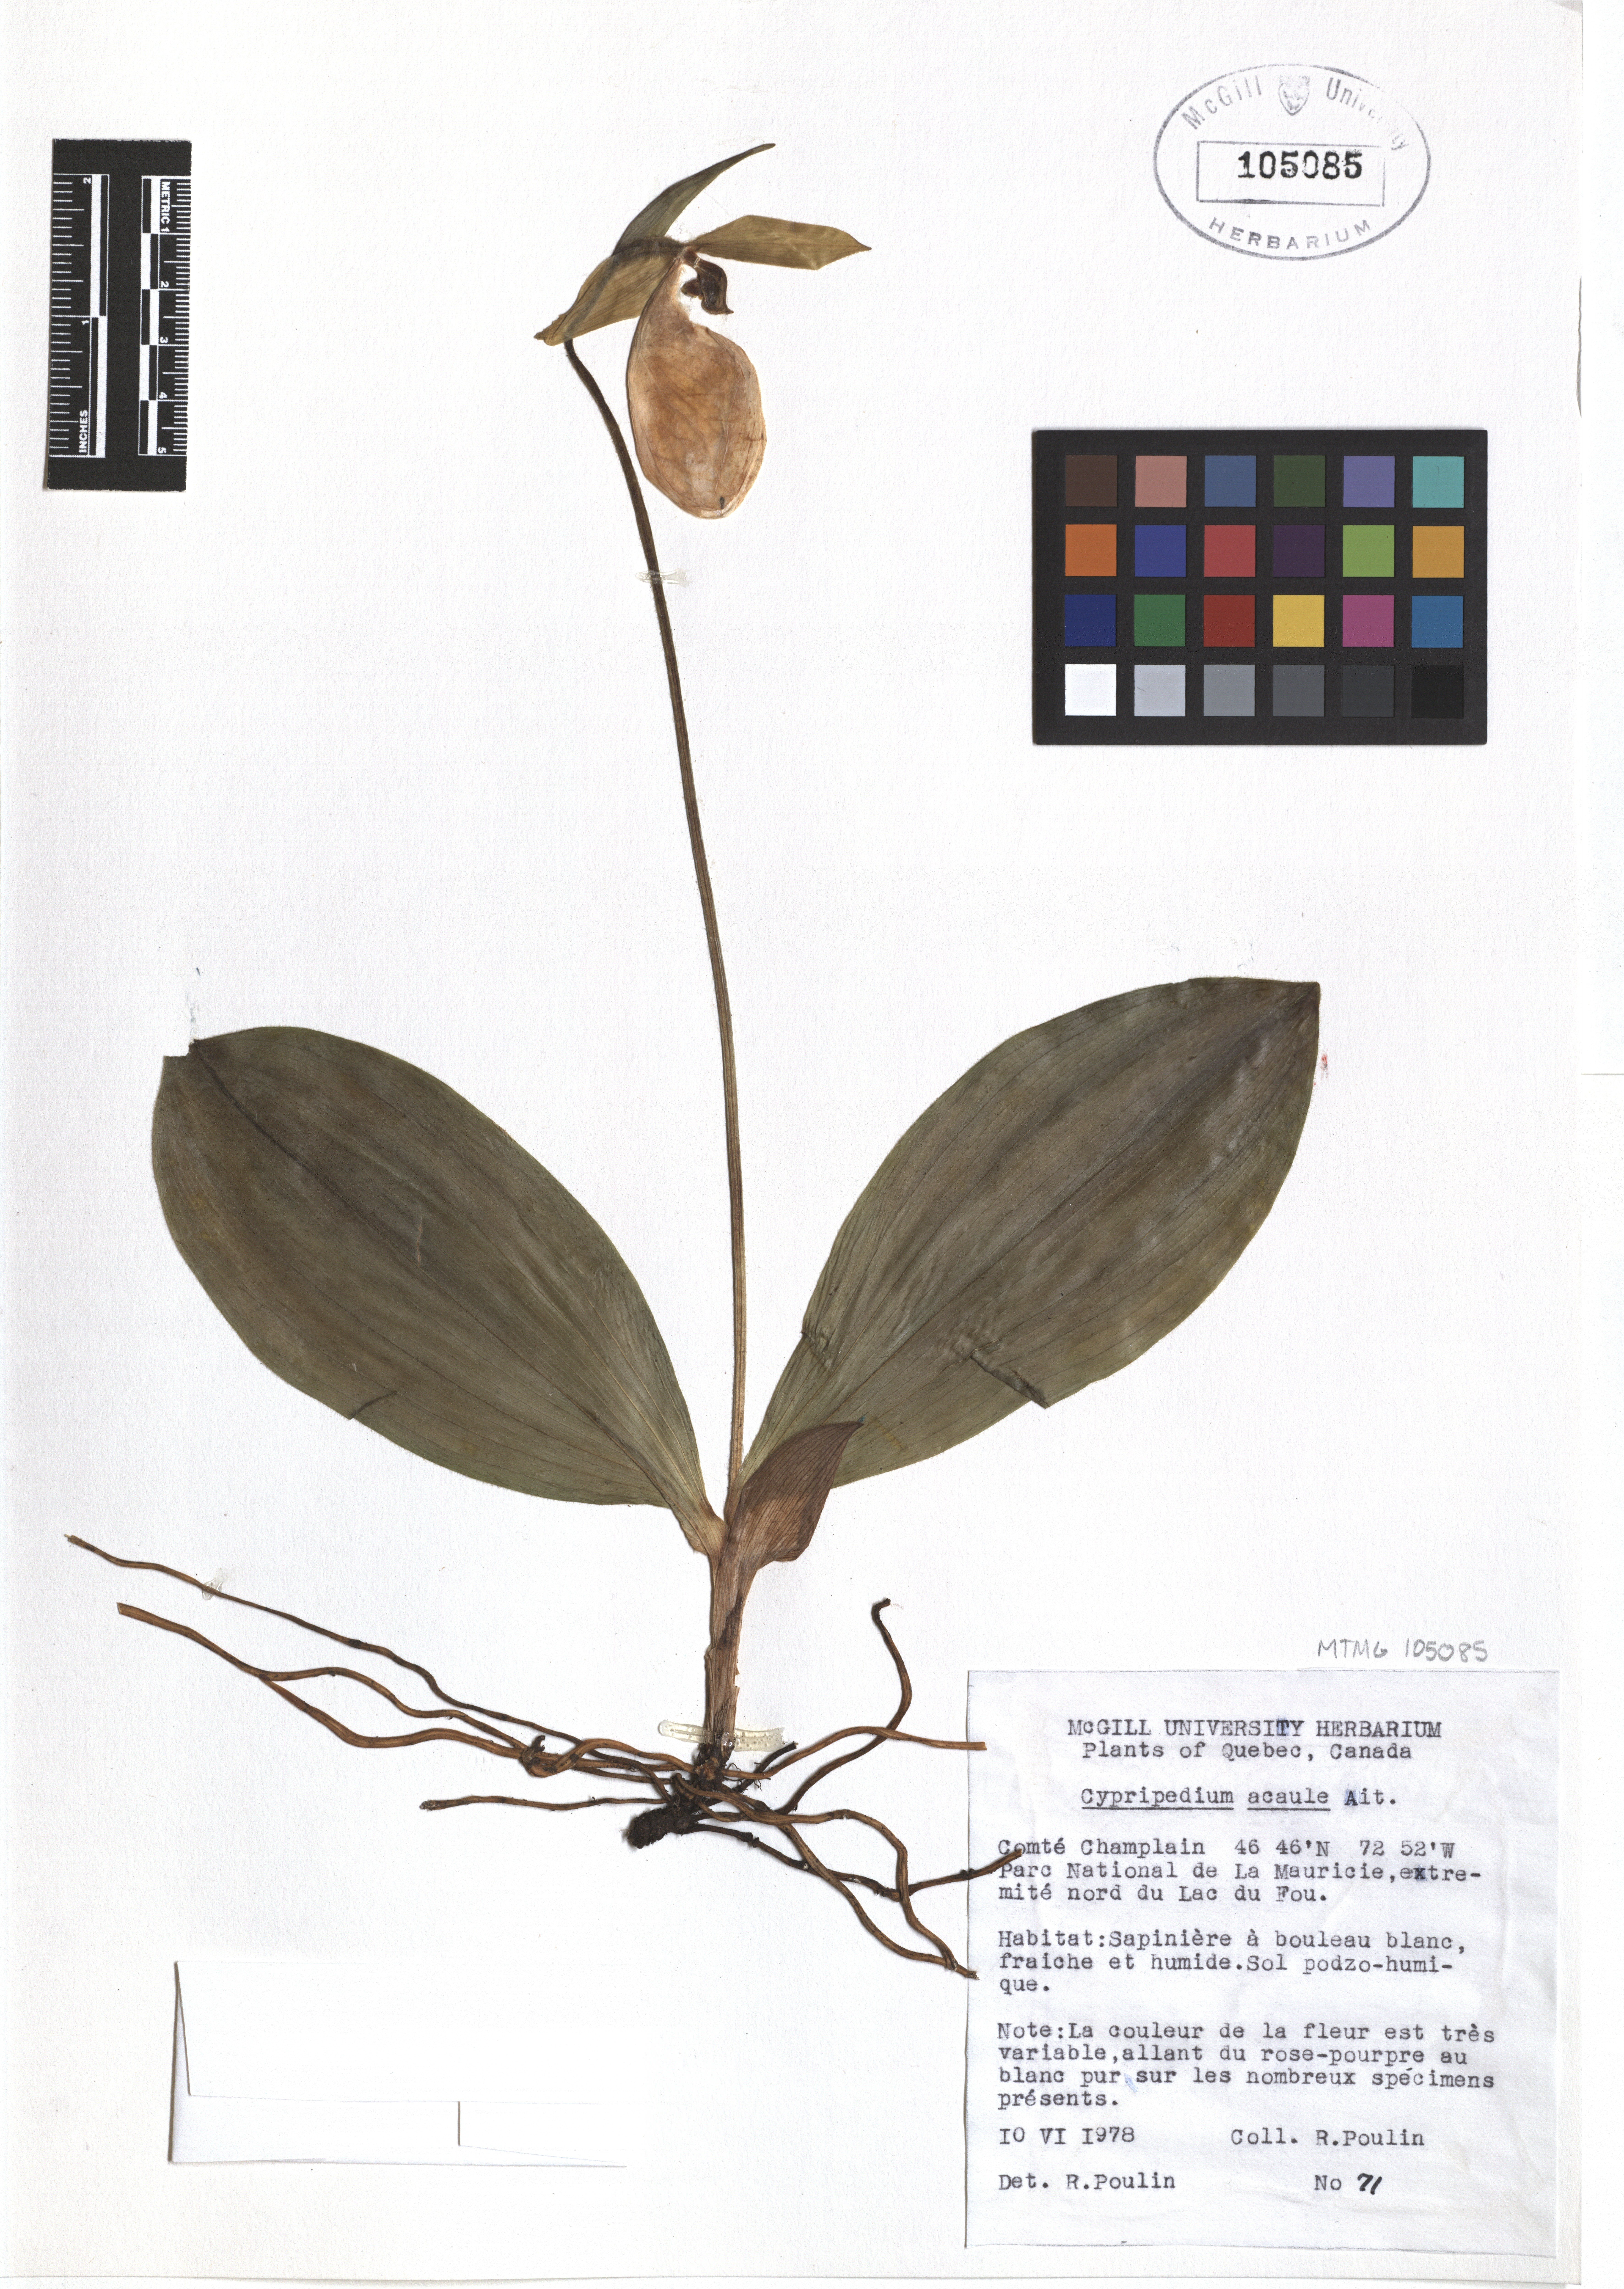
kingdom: Plantae
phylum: Tracheophyta
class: Liliopsida
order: Asparagales
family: Orchidaceae
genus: Cypripedium
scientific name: Cypripedium acaule
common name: Pink lady's-slipper
